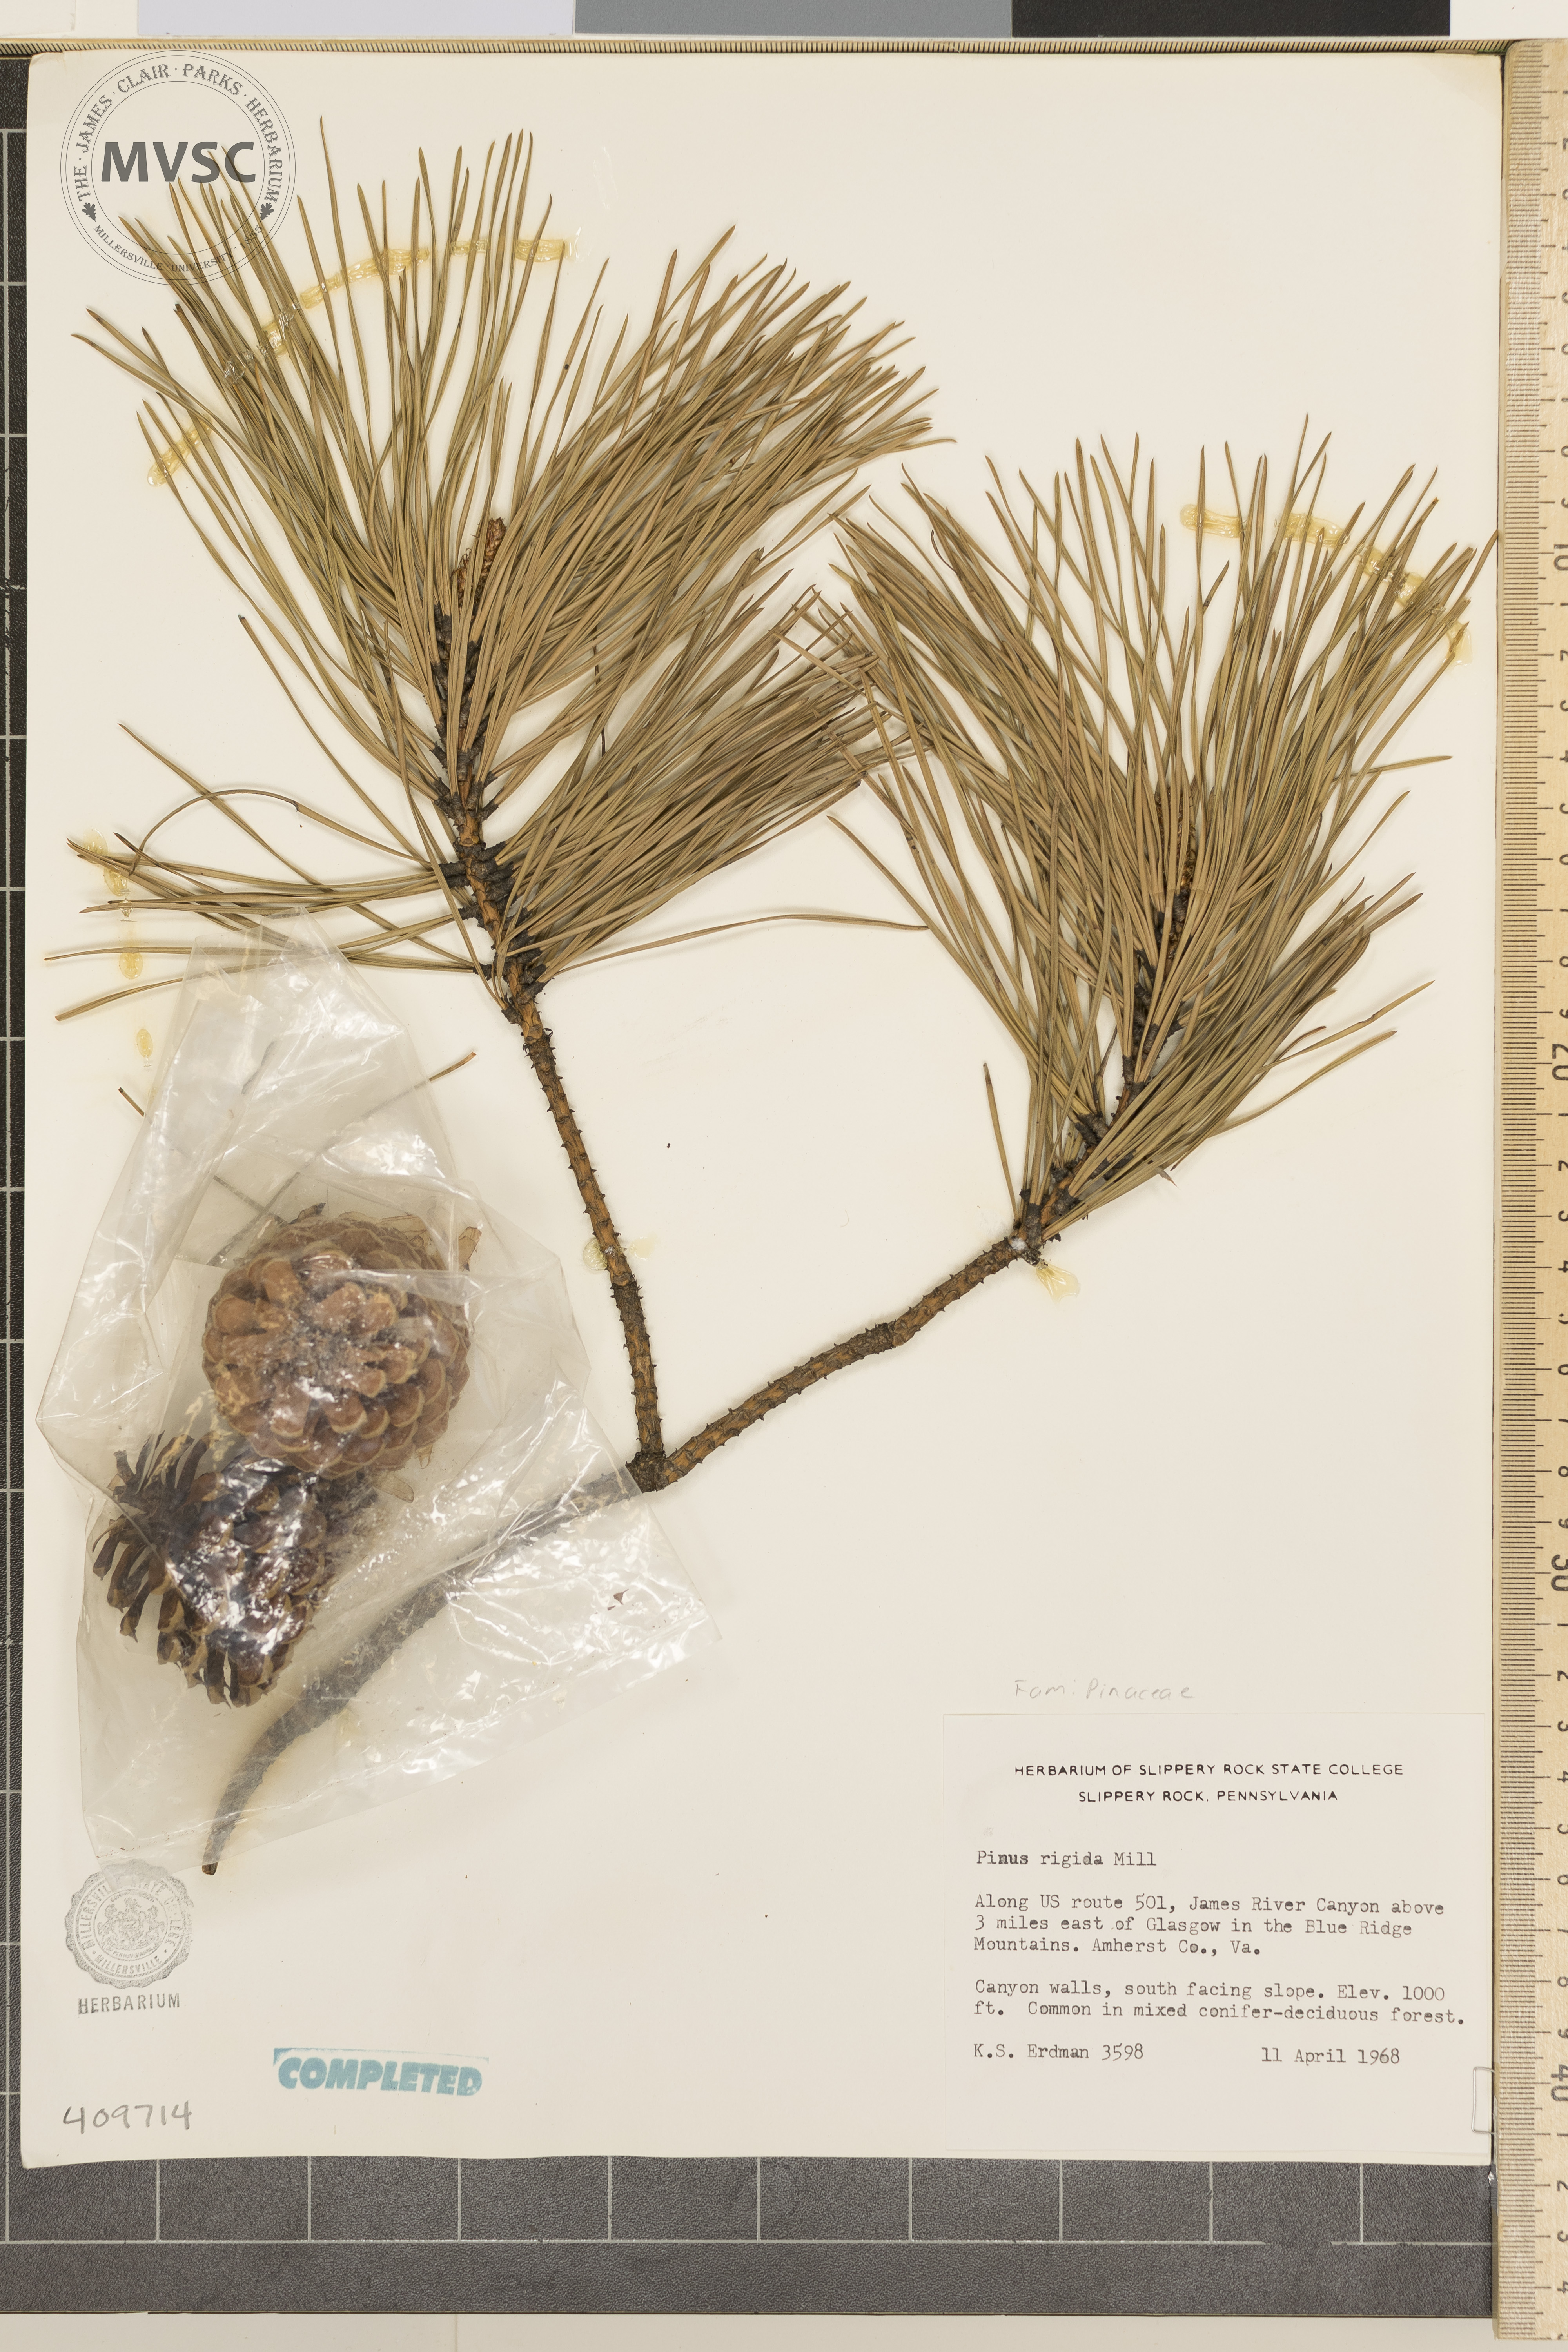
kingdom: Plantae
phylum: Tracheophyta
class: Pinopsida
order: Pinales
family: Pinaceae
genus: Pinus
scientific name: Pinus rigida
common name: Pitch pine
